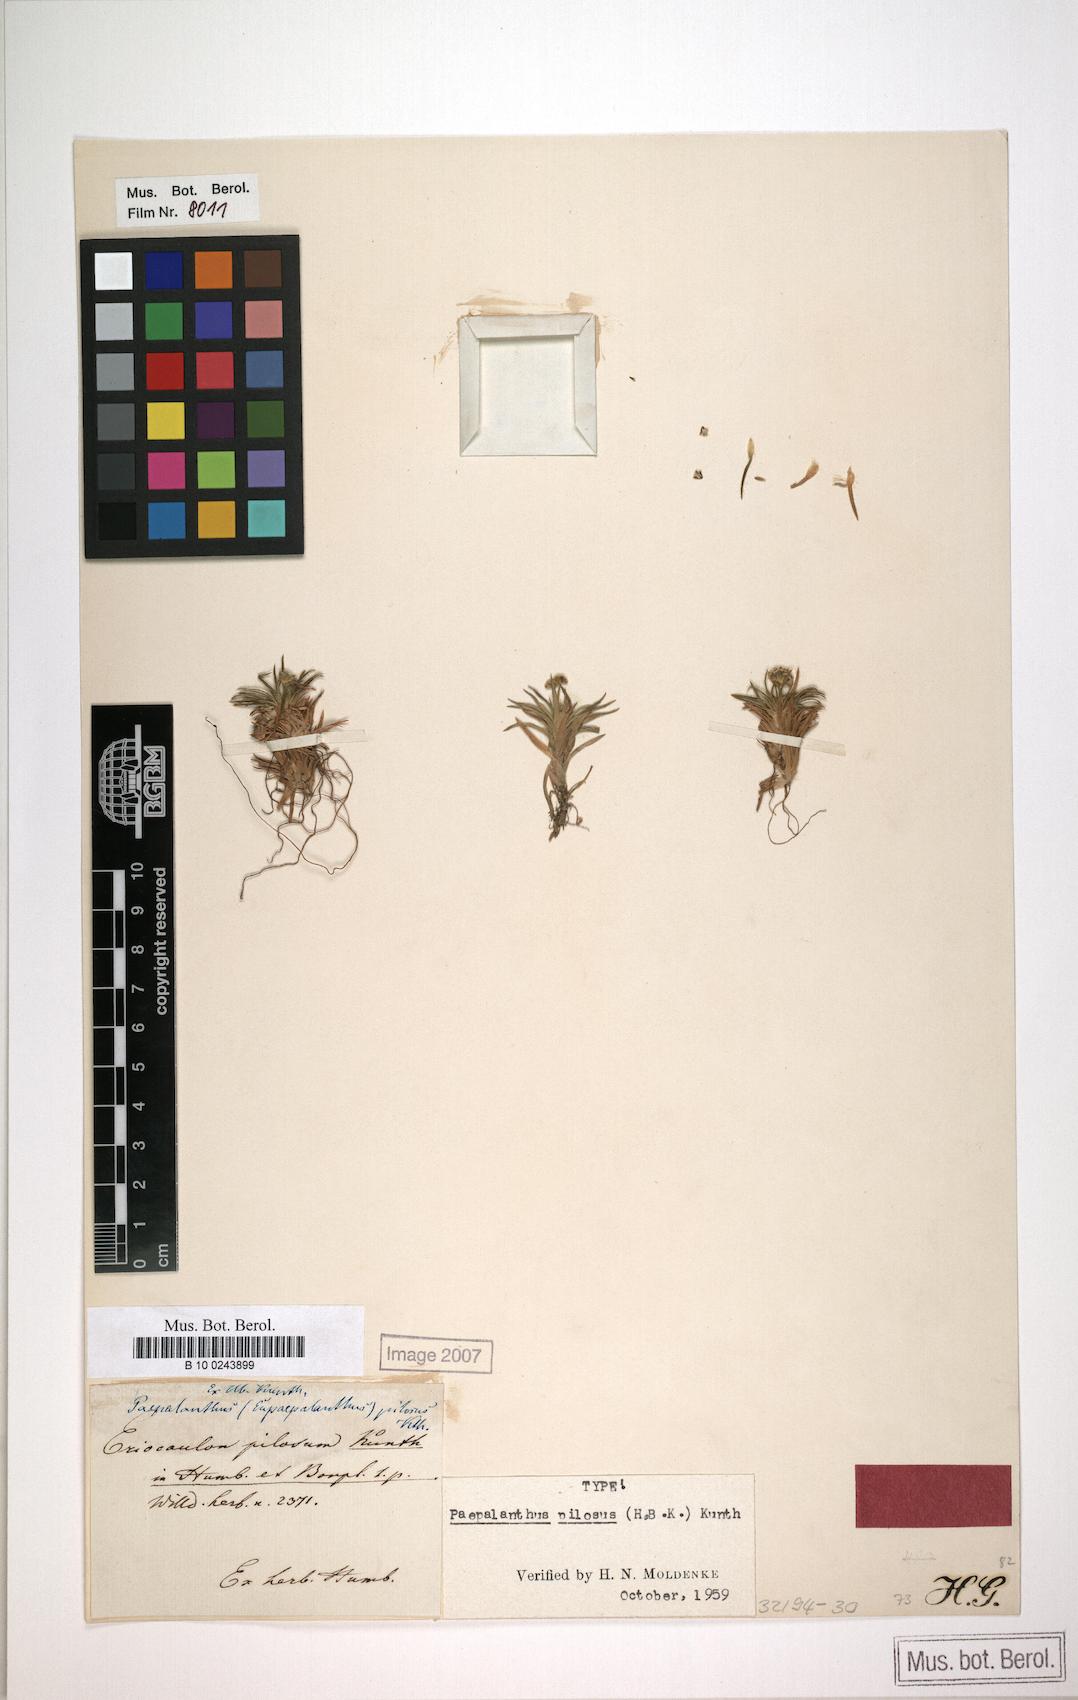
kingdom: Plantae
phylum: Tracheophyta
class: Liliopsida
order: Poales
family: Eriocaulaceae
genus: Paepalanthus
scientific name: Paepalanthus pilosus
